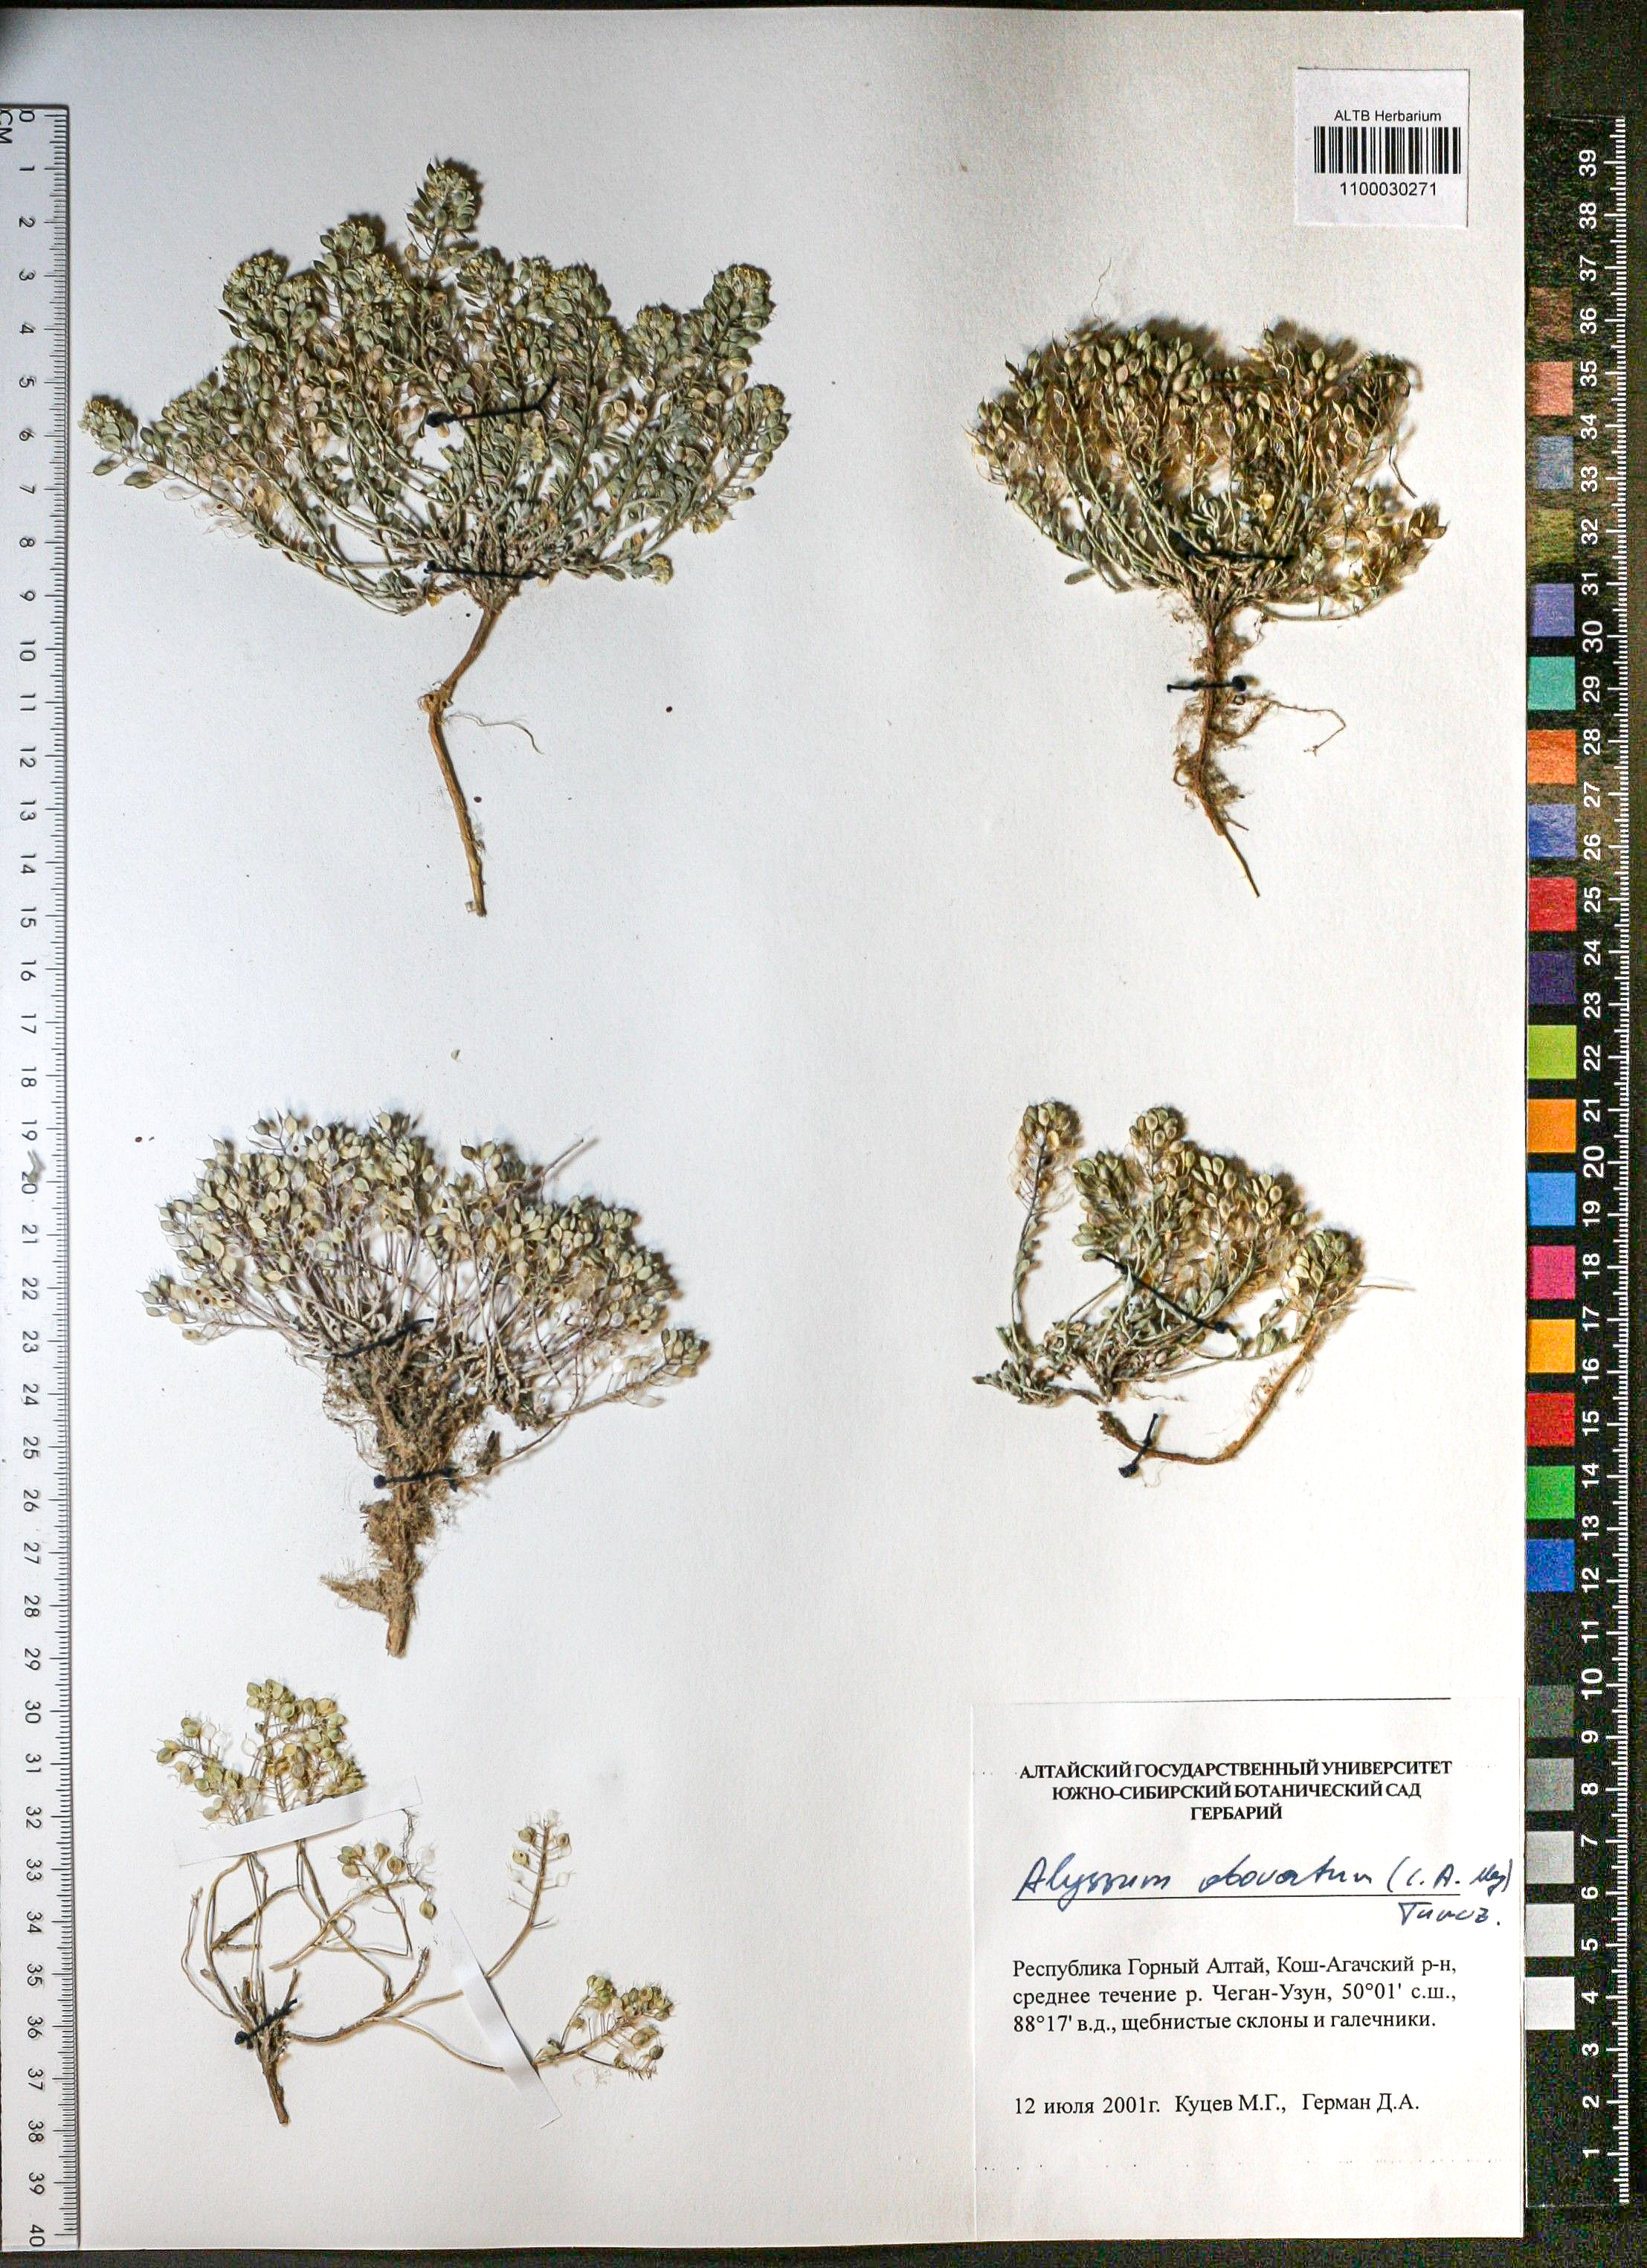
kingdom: Plantae
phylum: Tracheophyta
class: Magnoliopsida
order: Brassicales
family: Brassicaceae
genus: Odontarrhena
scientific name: Odontarrhena obovata
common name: American alyssum
